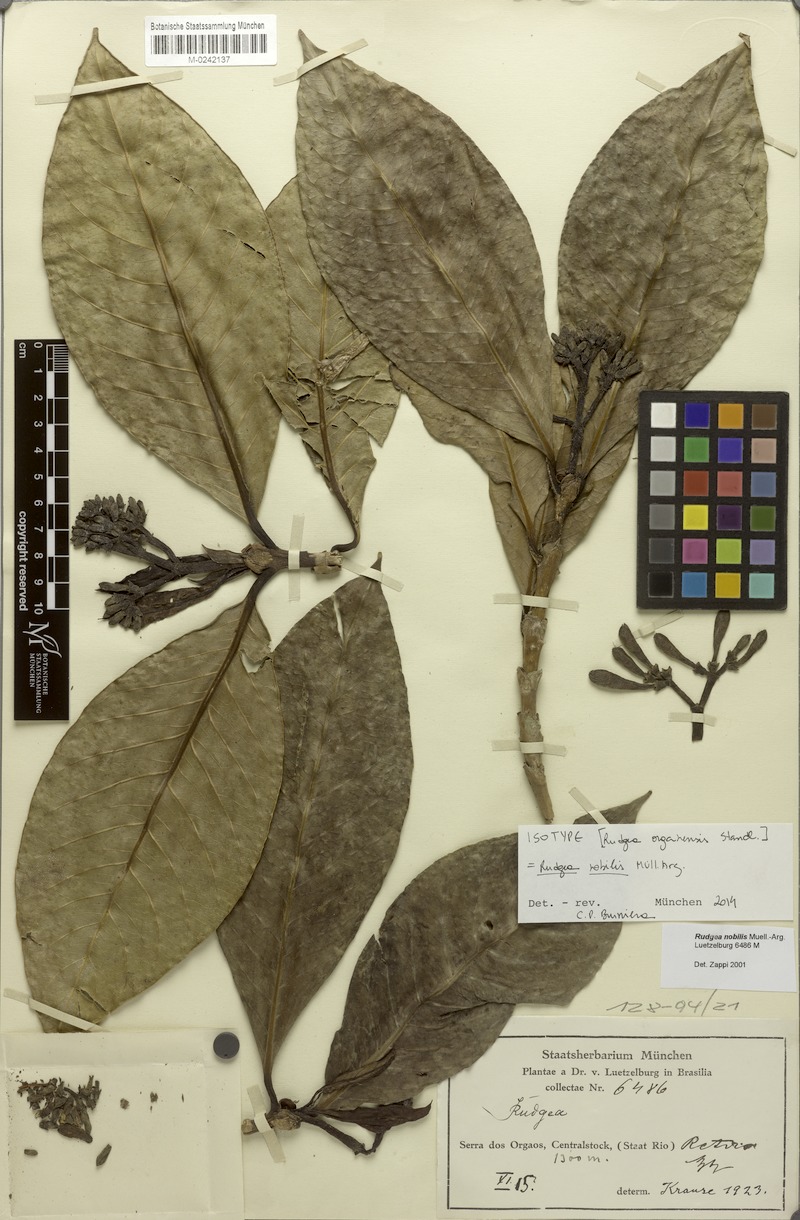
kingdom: Plantae
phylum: Tracheophyta
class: Magnoliopsida
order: Gentianales
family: Rubiaceae
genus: Rudgea
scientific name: Rudgea nobilis
